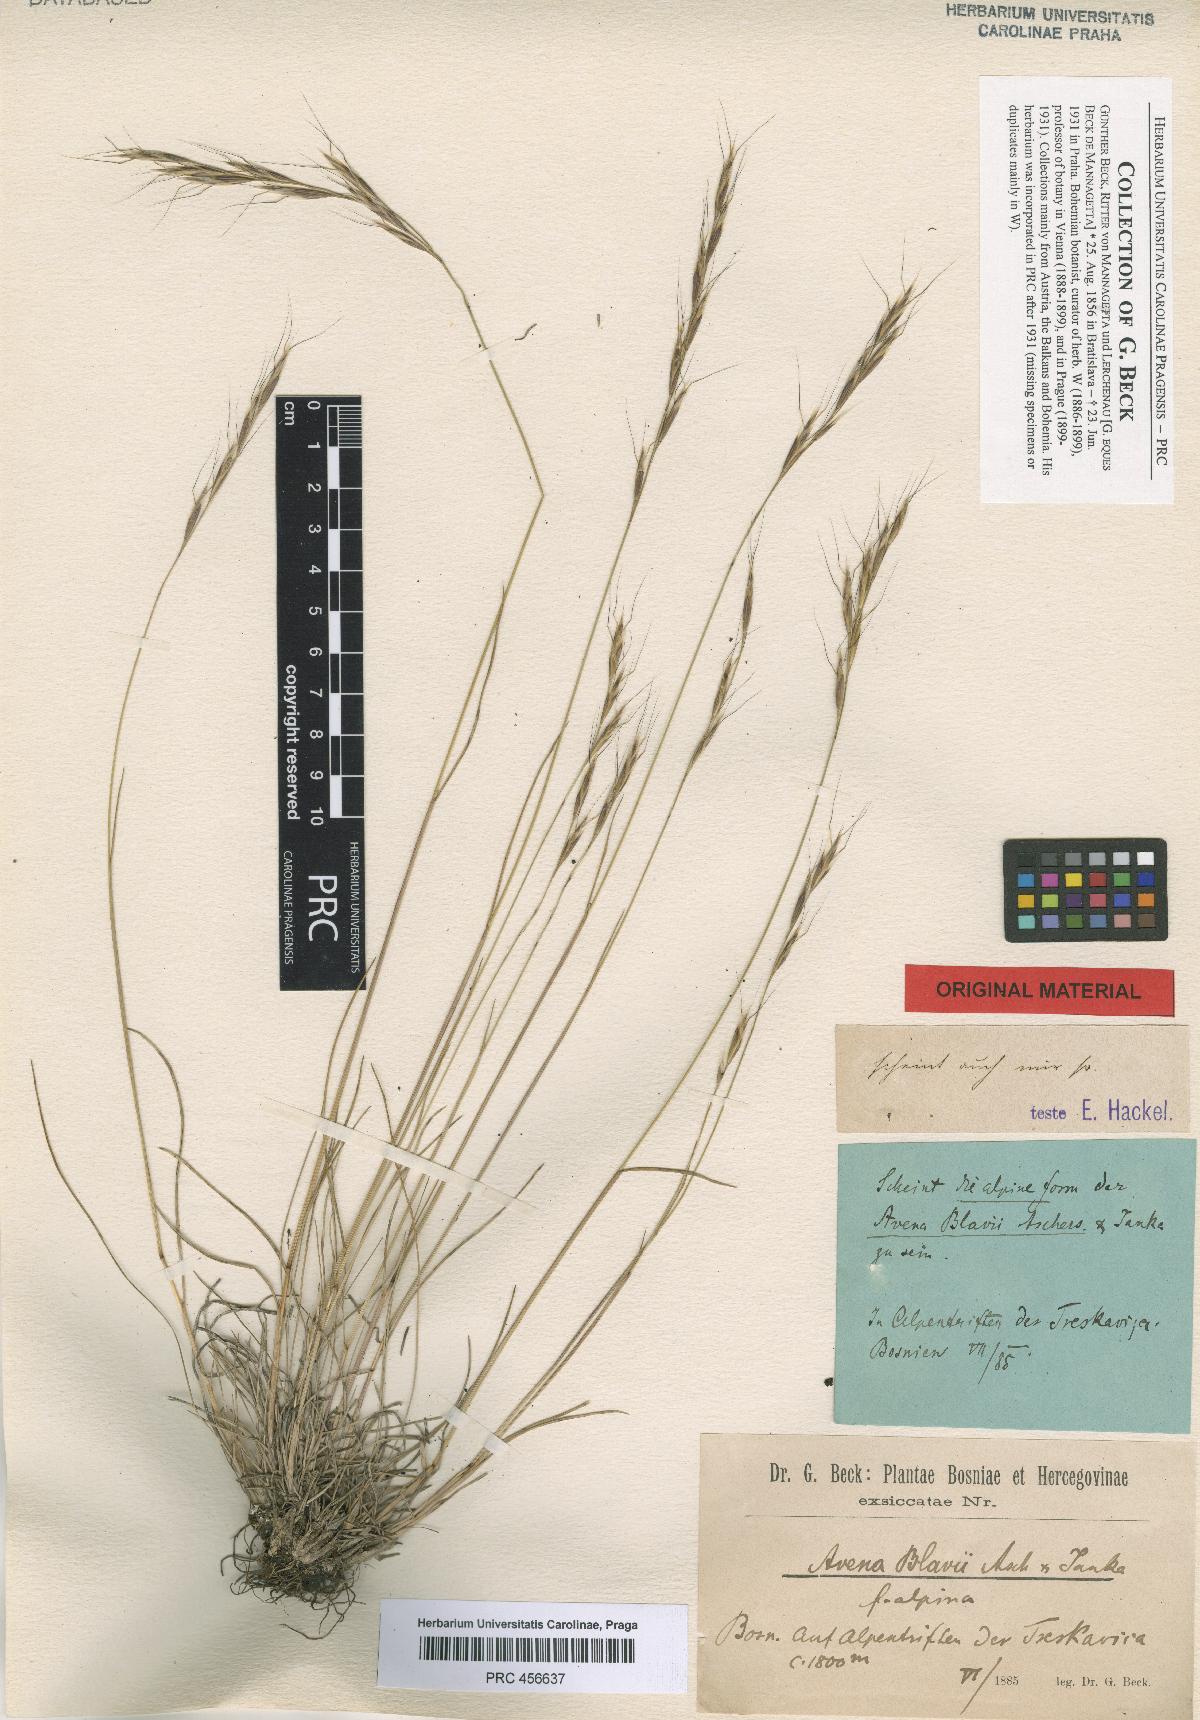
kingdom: Plantae
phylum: Tracheophyta
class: Liliopsida
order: Poales
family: Poaceae
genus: Helictochloa
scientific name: Helictochloa blaui
